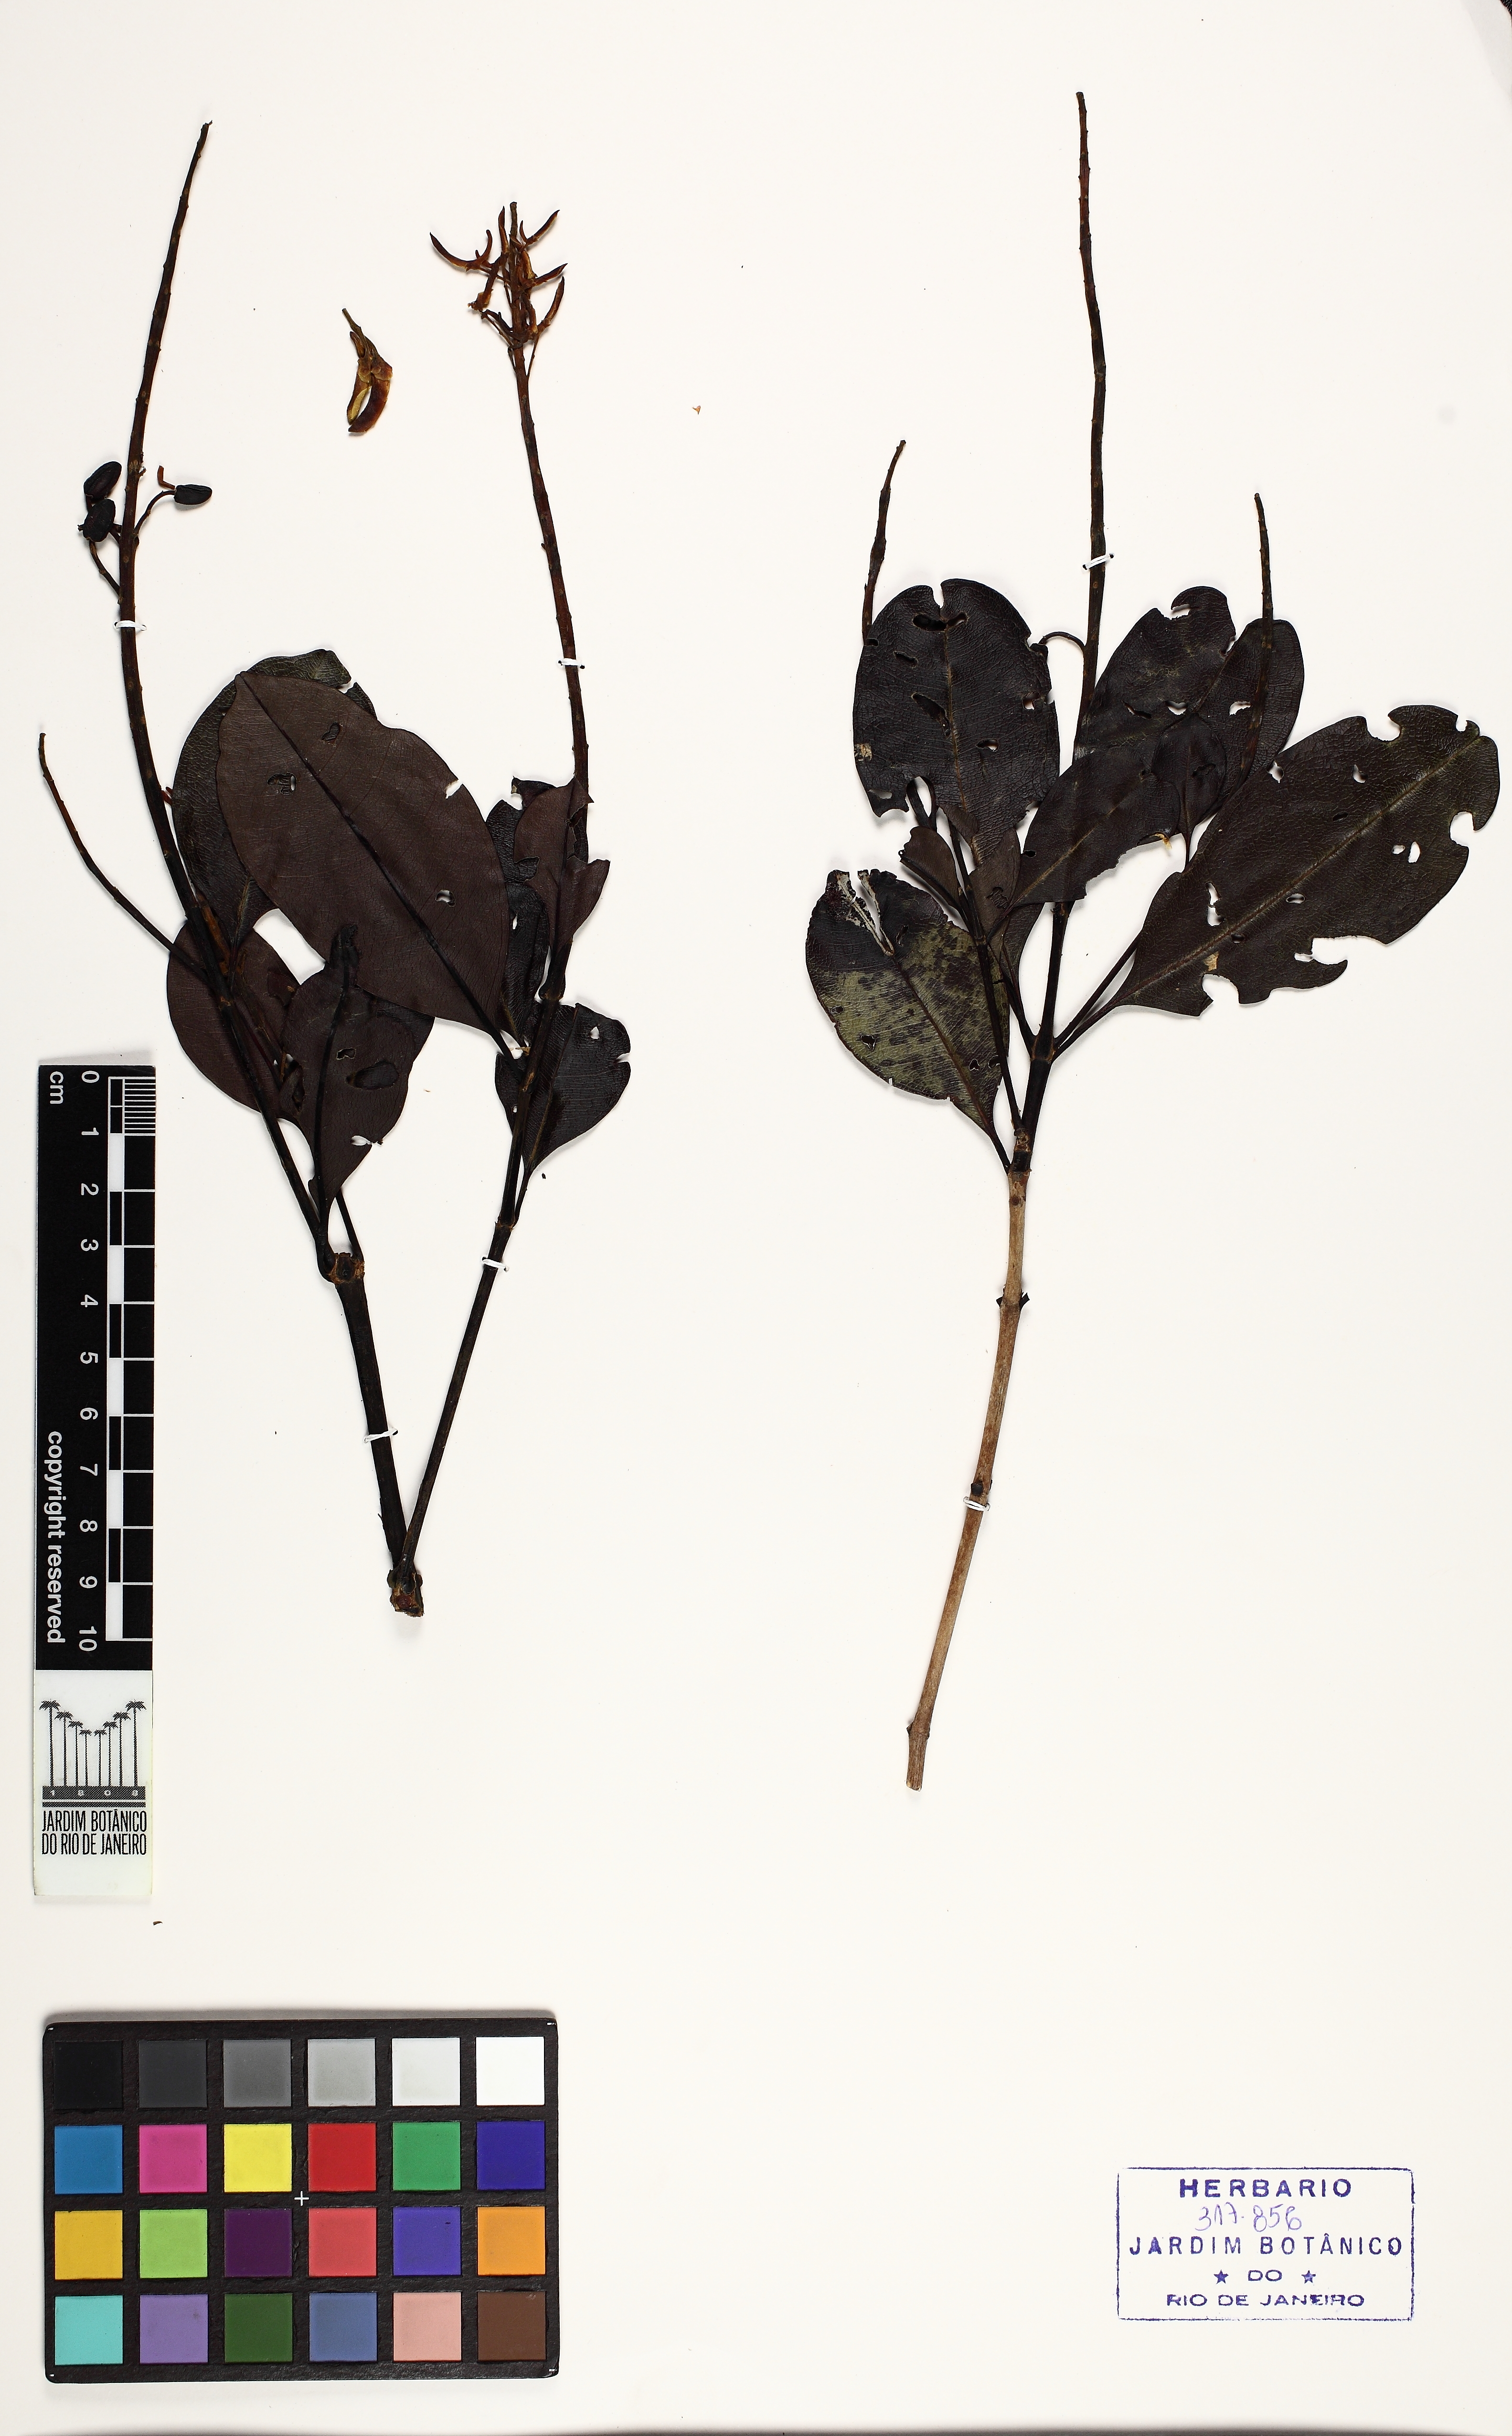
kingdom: Plantae
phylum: Tracheophyta
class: Magnoliopsida
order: Myrtales
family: Vochysiaceae
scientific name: Vochysiaceae
